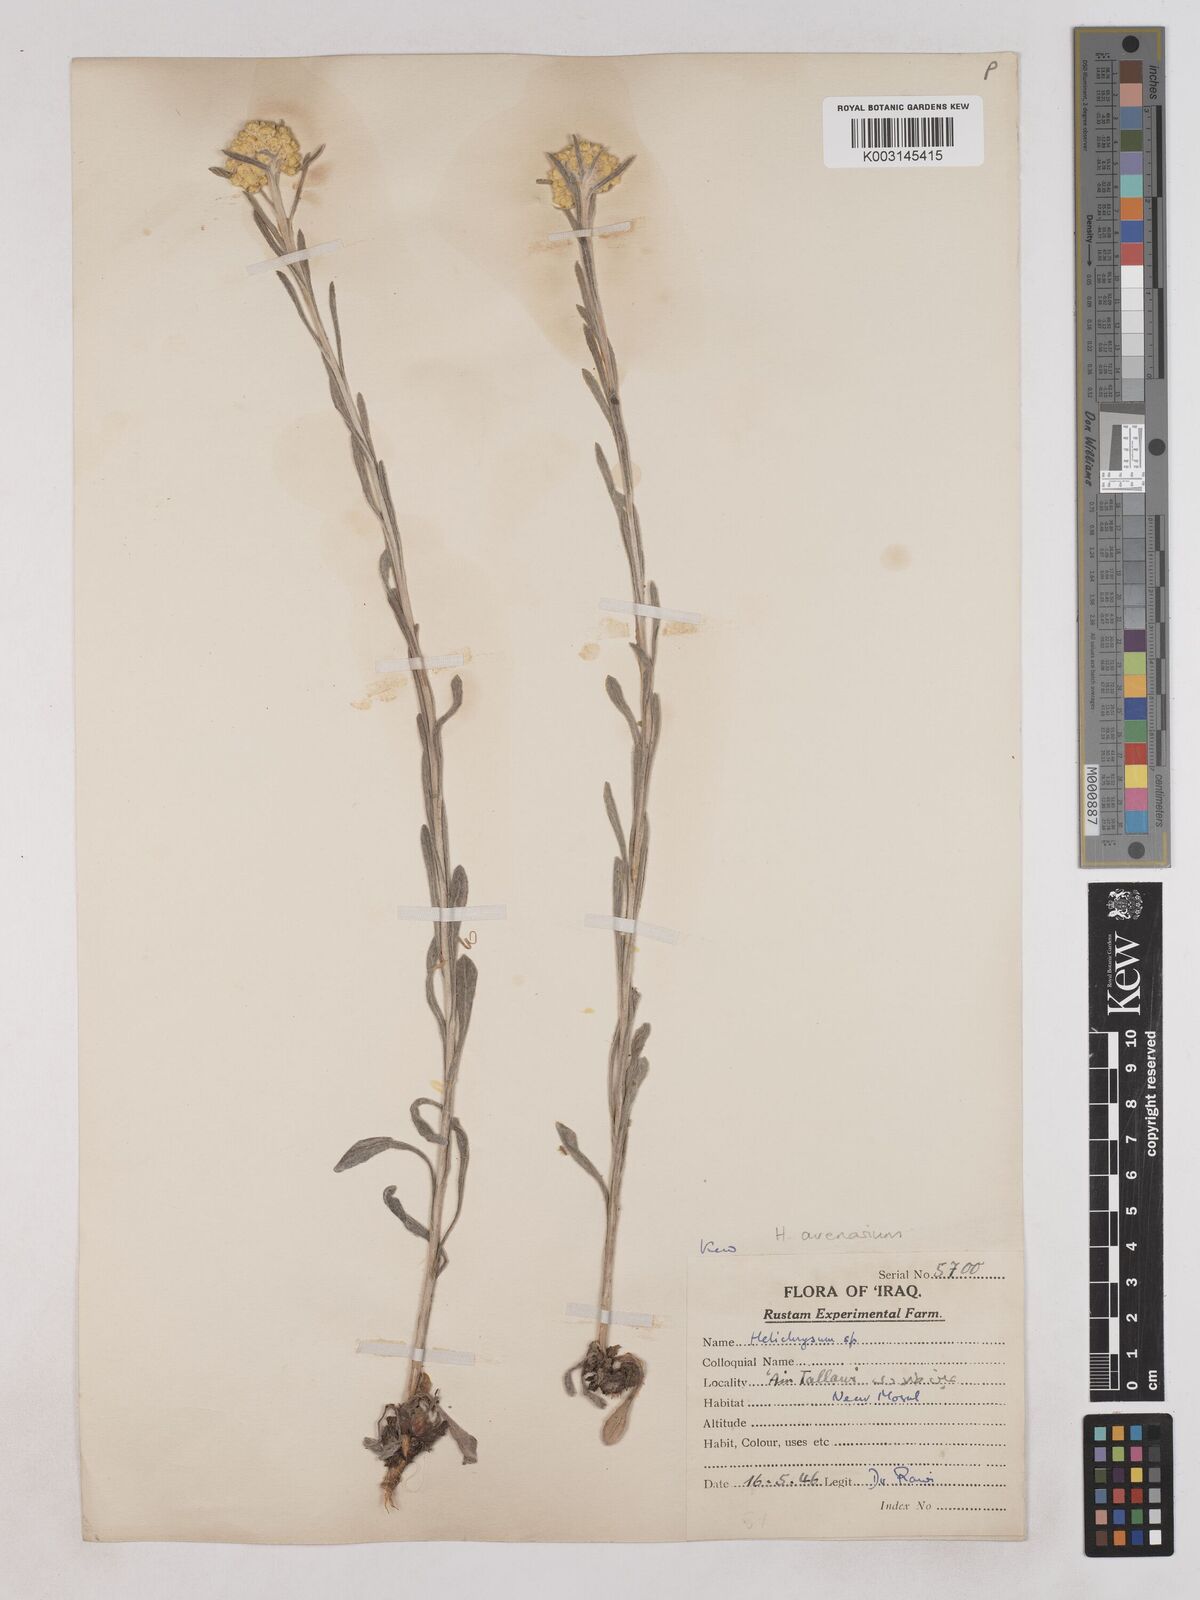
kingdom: Plantae
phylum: Tracheophyta
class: Magnoliopsida
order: Asterales
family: Asteraceae
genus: Helichrysum
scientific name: Helichrysum arenarium
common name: Strawflower
